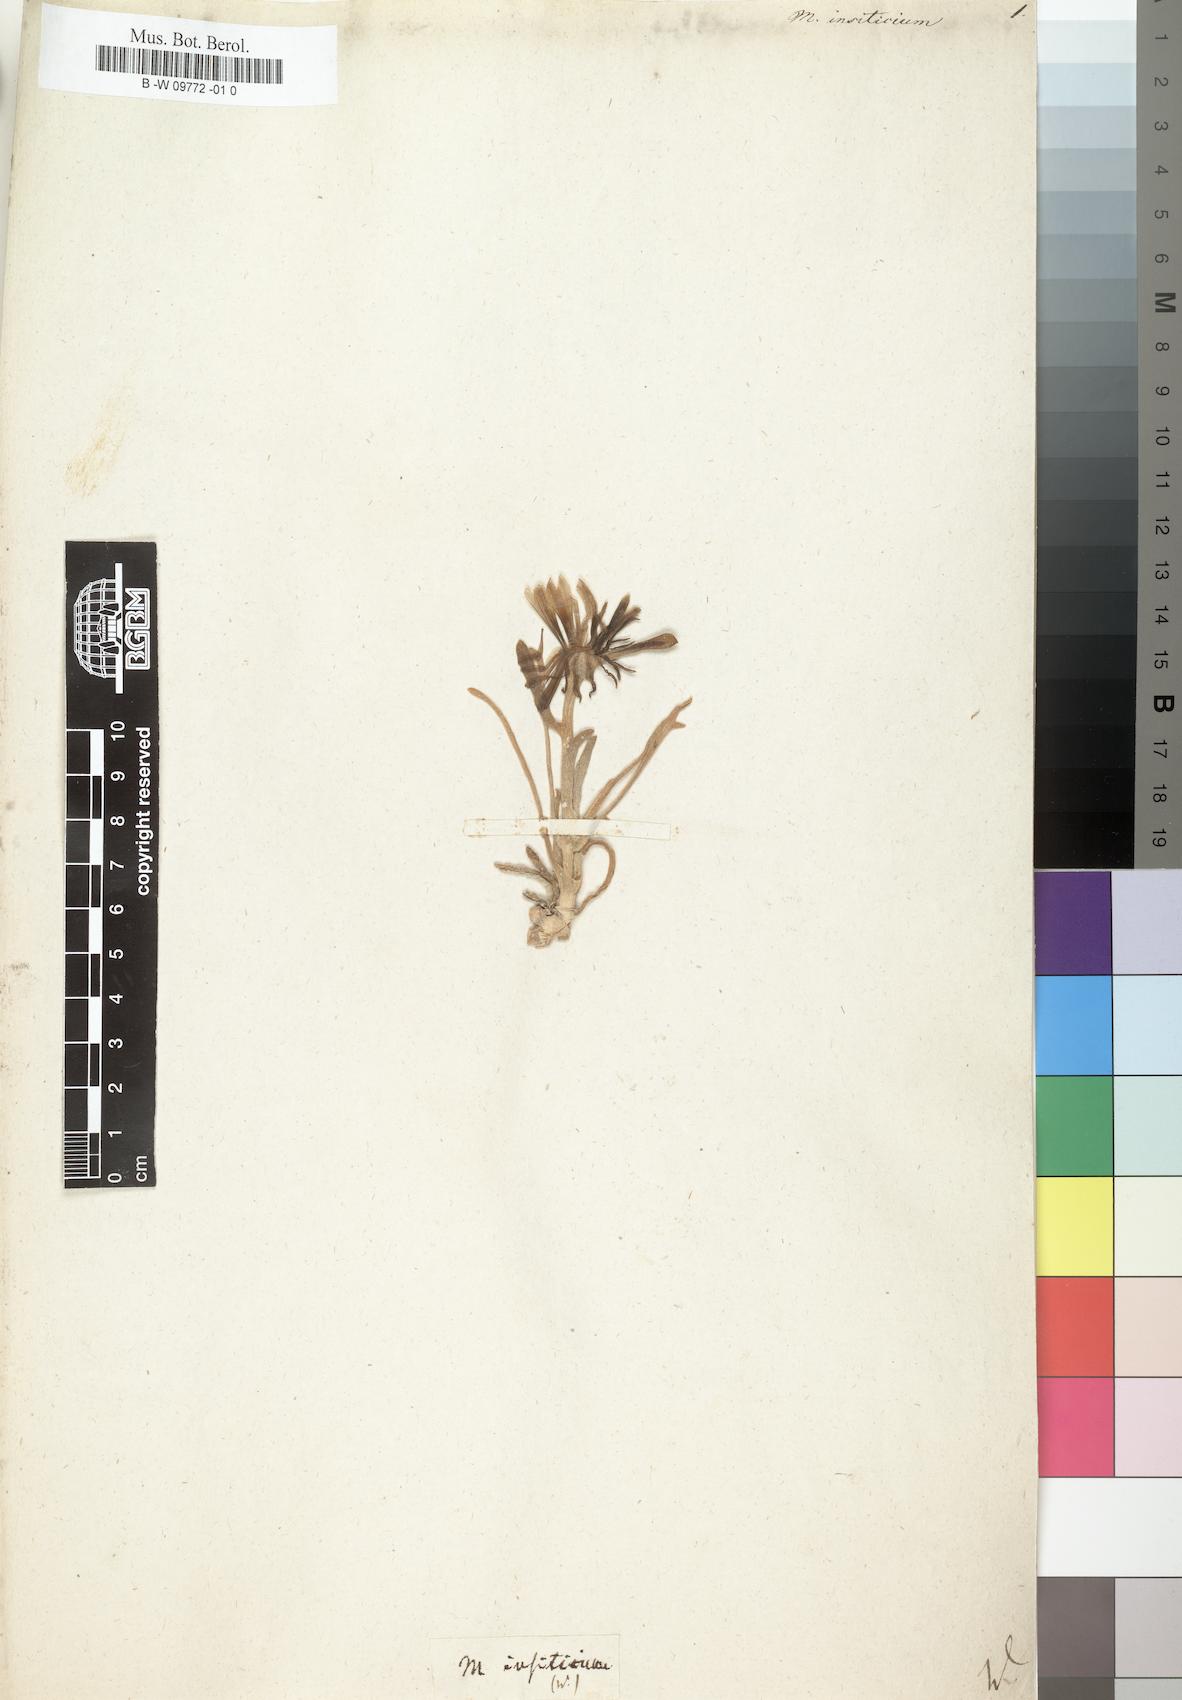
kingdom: Plantae
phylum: Tracheophyta
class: Magnoliopsida
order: Caryophyllales
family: Aizoaceae
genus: Malephora
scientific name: Malephora purpureocrocea
